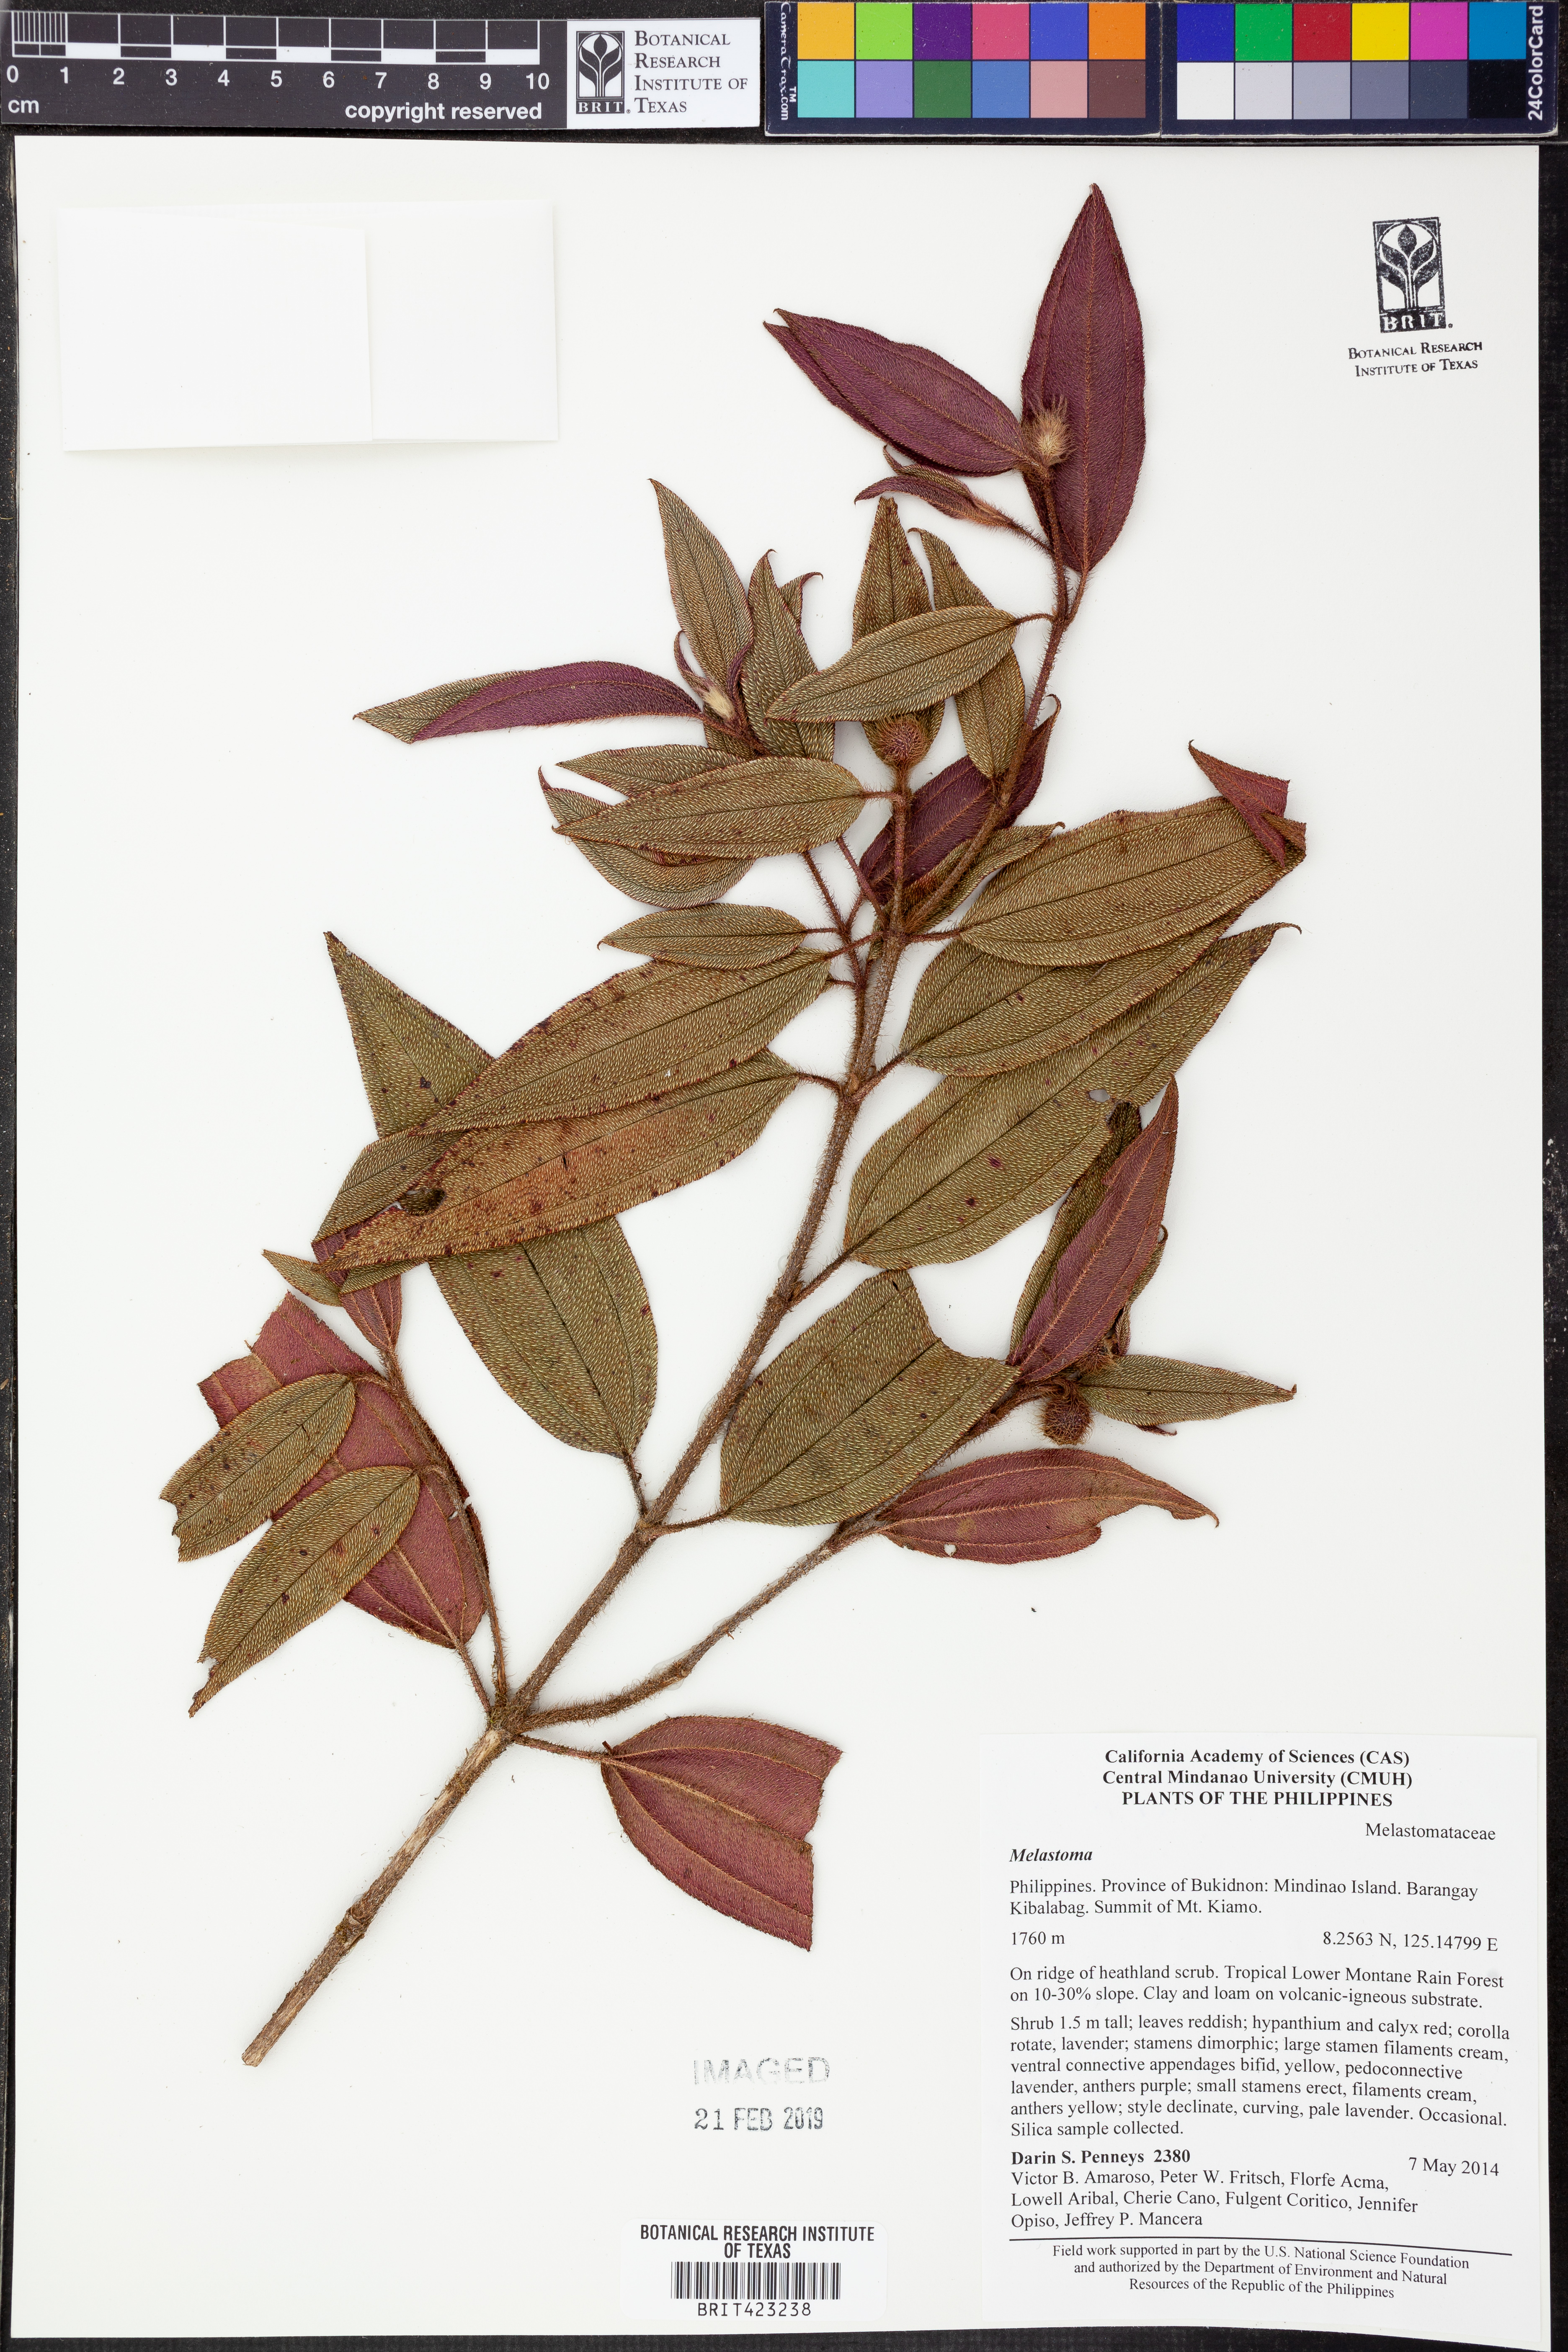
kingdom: Plantae
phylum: Tracheophyta
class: Magnoliopsida
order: Myrtales
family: Melastomataceae
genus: Melastoma
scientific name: Melastoma
